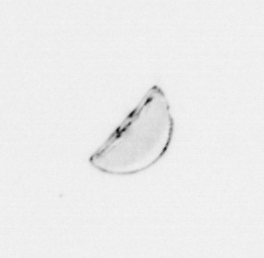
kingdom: Chromista
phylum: Ochrophyta
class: Bacillariophyceae
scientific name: Bacillariophyceae
